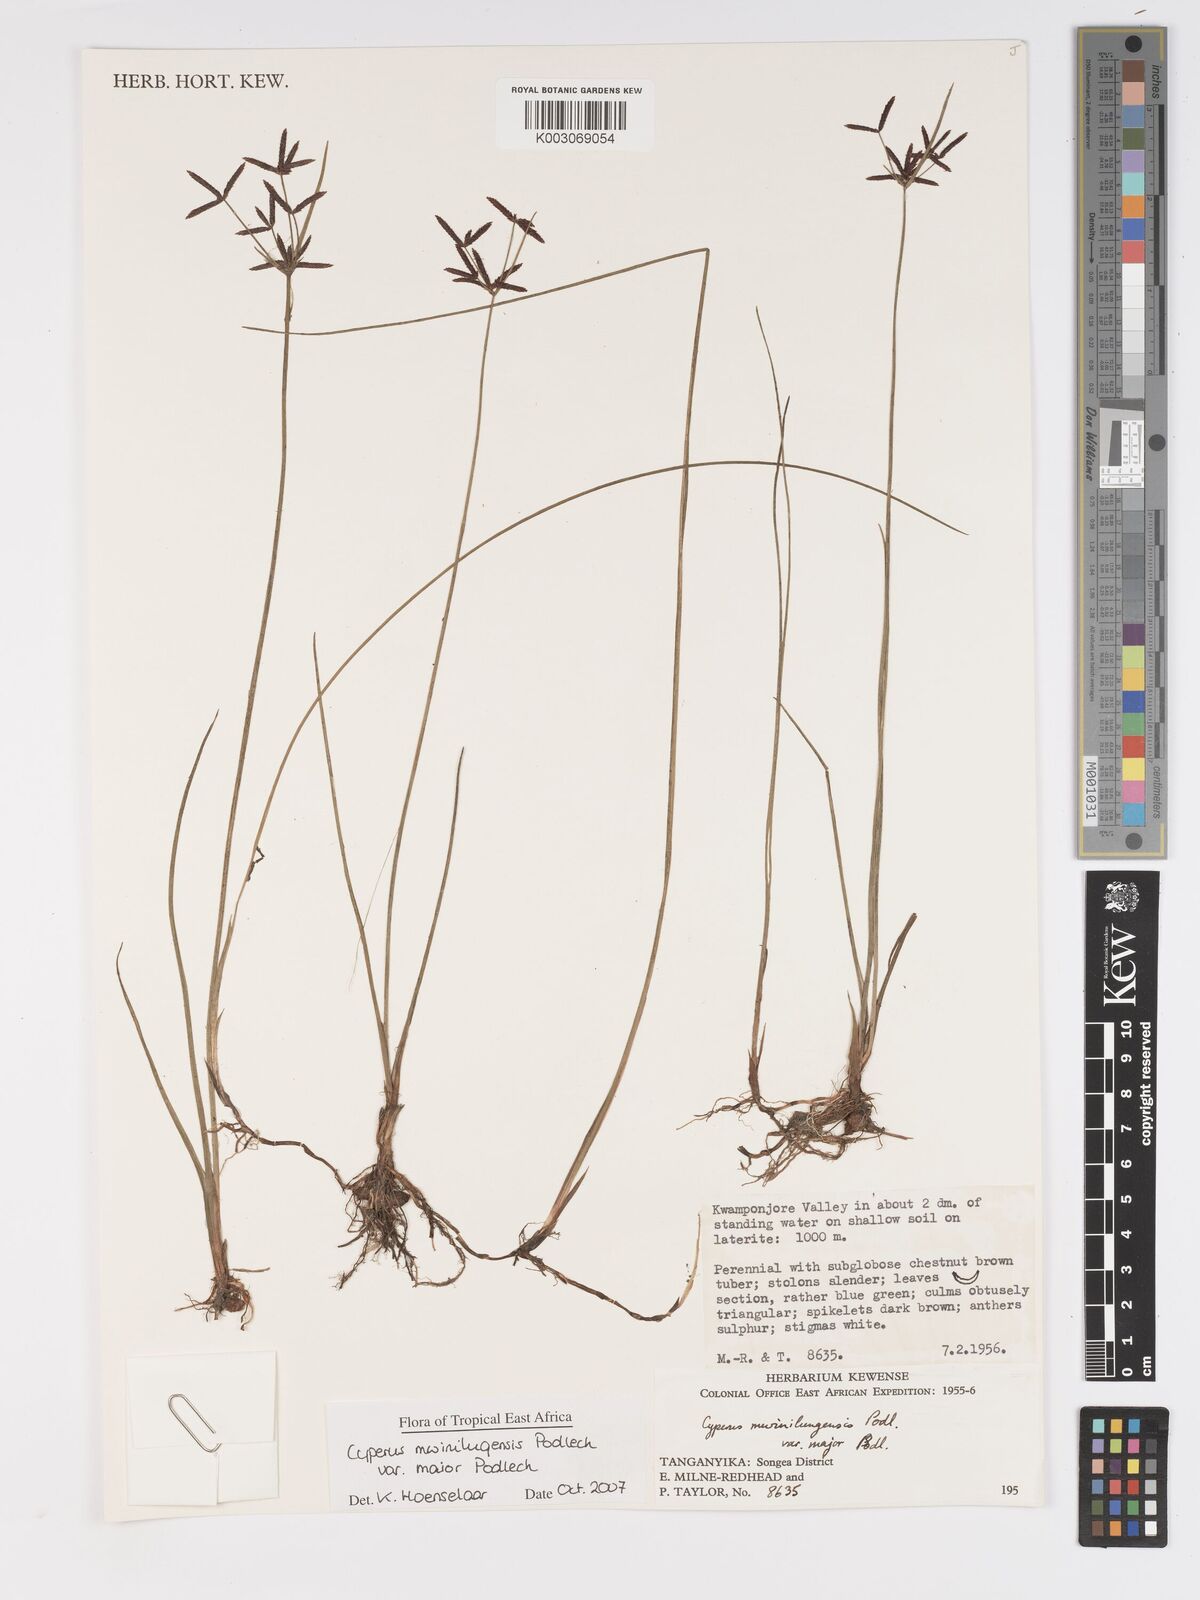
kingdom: Plantae
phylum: Tracheophyta
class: Liliopsida
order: Poales
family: Cyperaceae
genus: Cyperus
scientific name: Cyperus mwinilungensis
